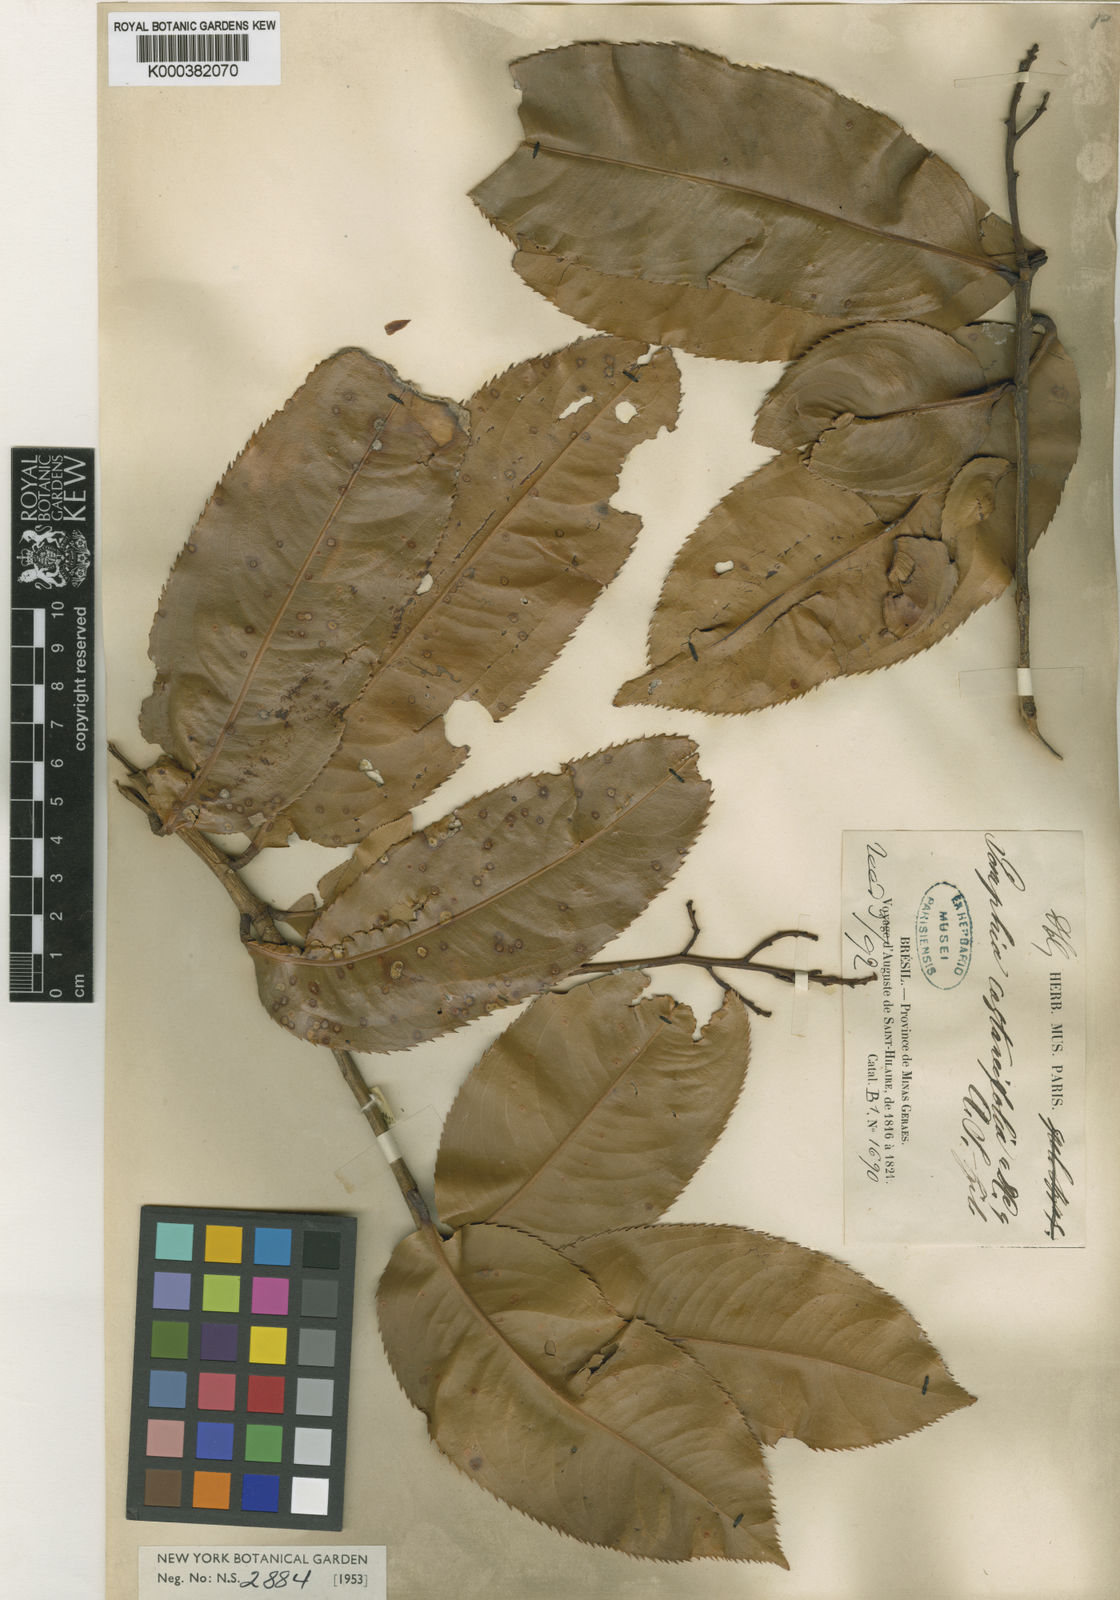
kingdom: Plantae
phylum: Tracheophyta
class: Magnoliopsida
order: Malpighiales
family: Ochnaceae
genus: Ouratea
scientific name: Ouratea castaneifolia
